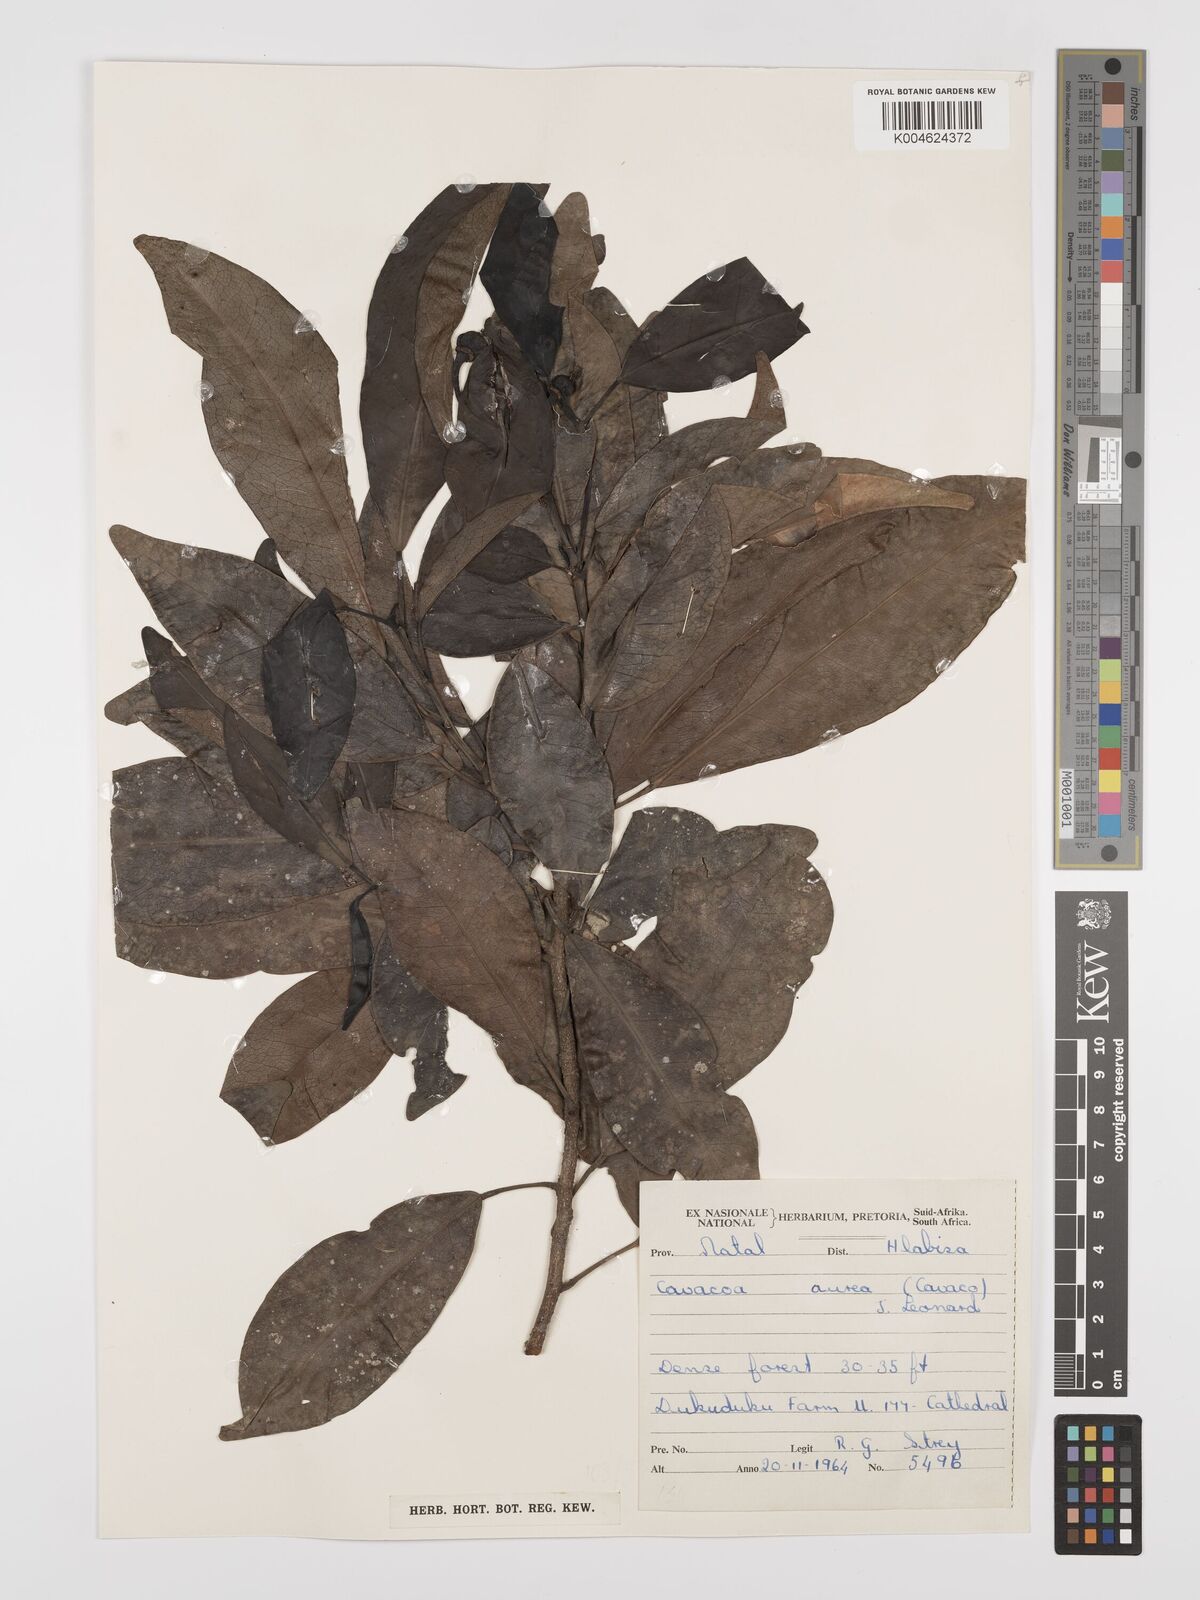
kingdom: Plantae
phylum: Tracheophyta
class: Magnoliopsida
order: Malpighiales
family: Euphorbiaceae
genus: Cavacoa
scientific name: Cavacoa aurea
